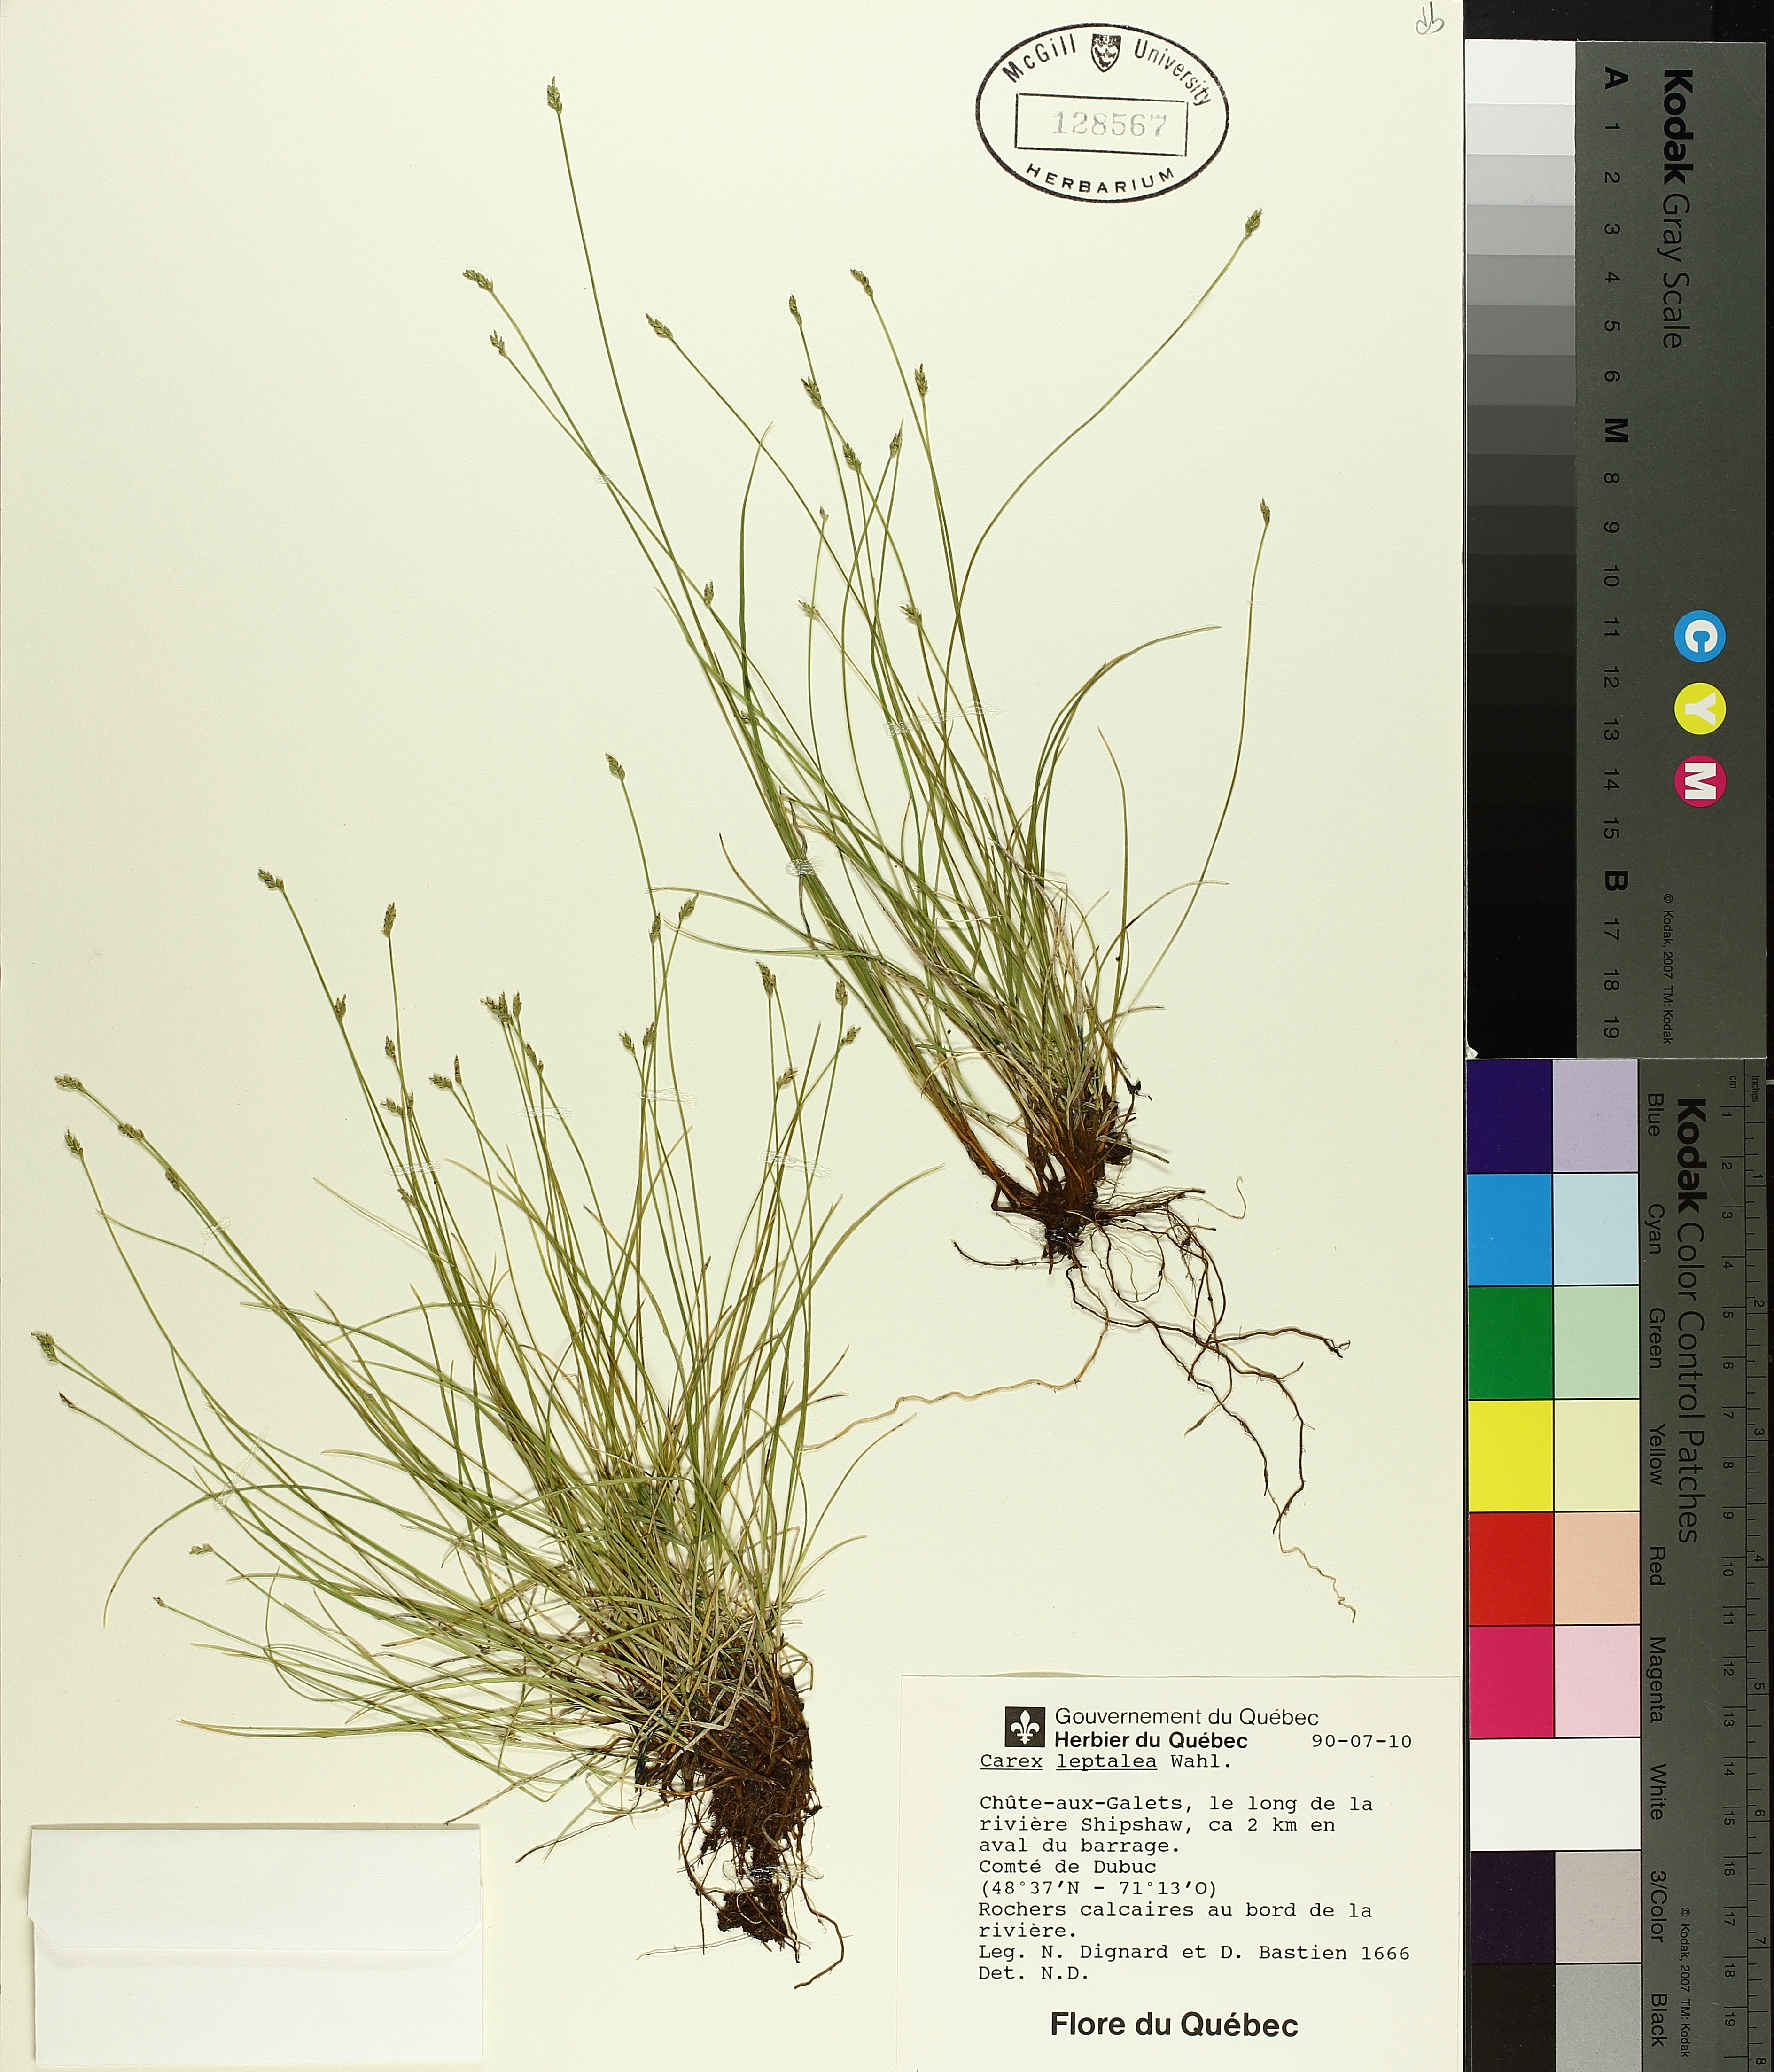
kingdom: Plantae
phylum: Tracheophyta
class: Liliopsida
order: Poales
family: Cyperaceae
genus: Carex
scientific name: Carex leptalea
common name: Bristly-stalked sedge
